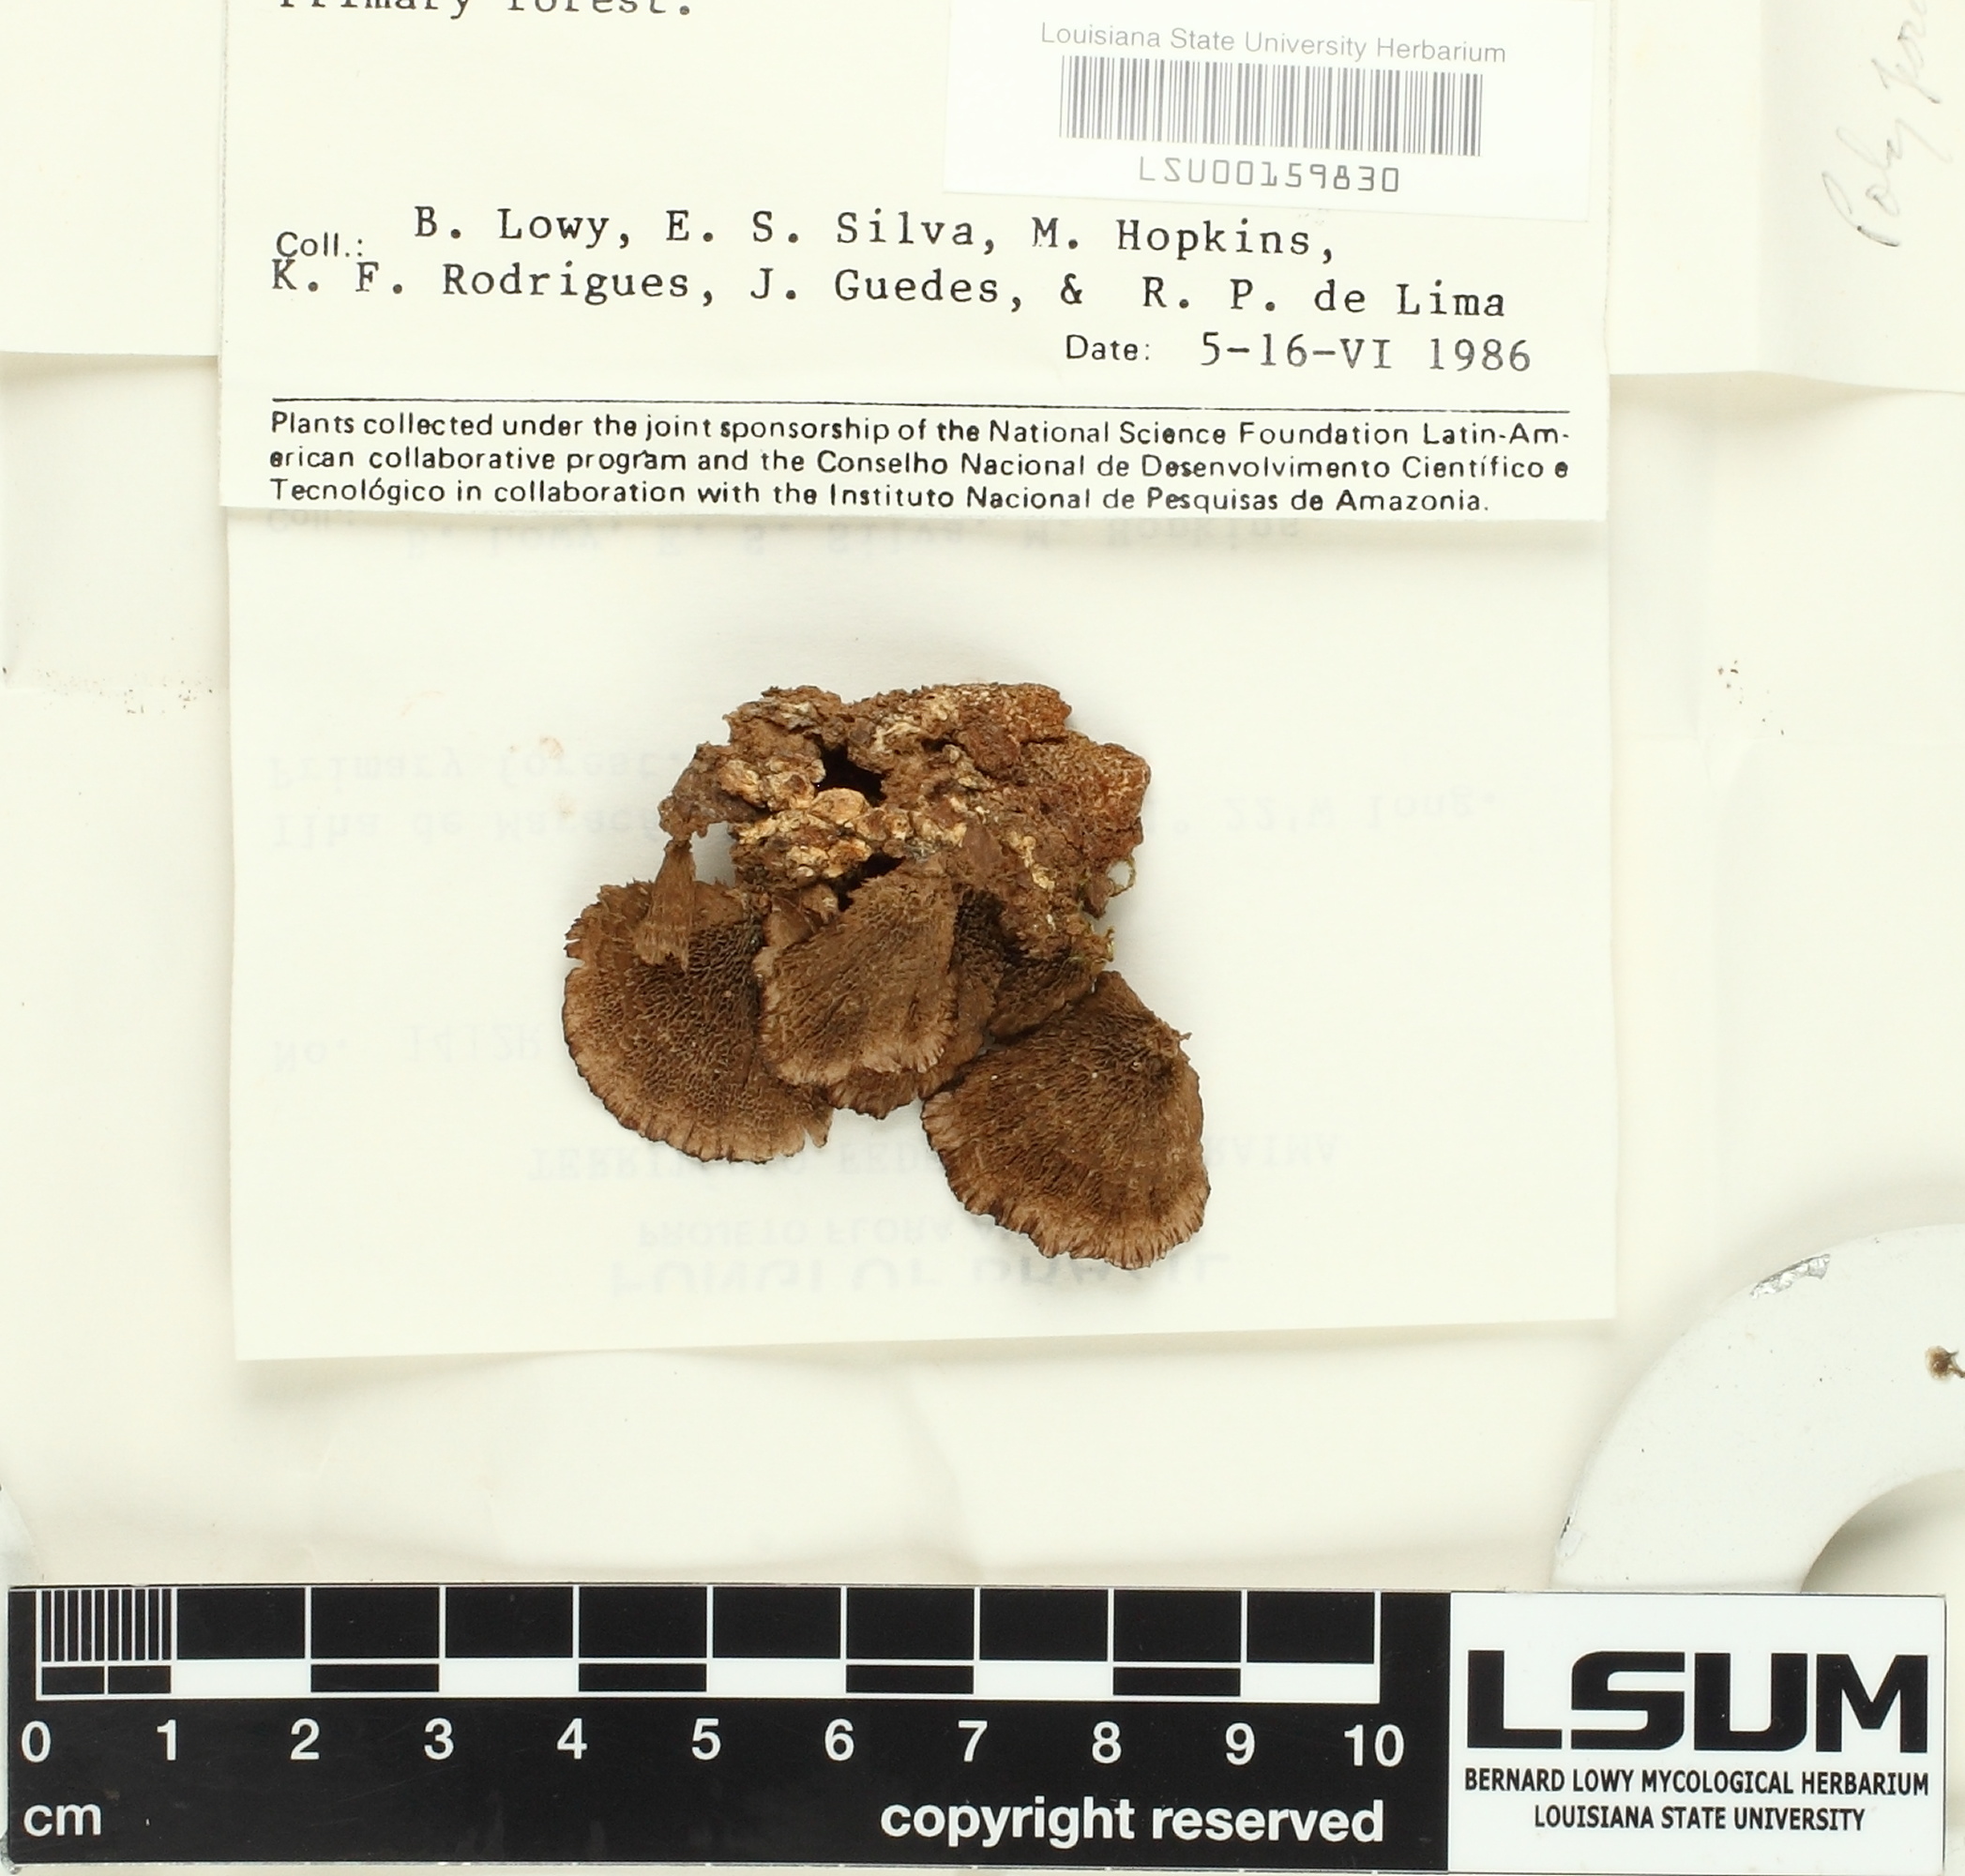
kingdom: Fungi
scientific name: Fungi
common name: Fungi
